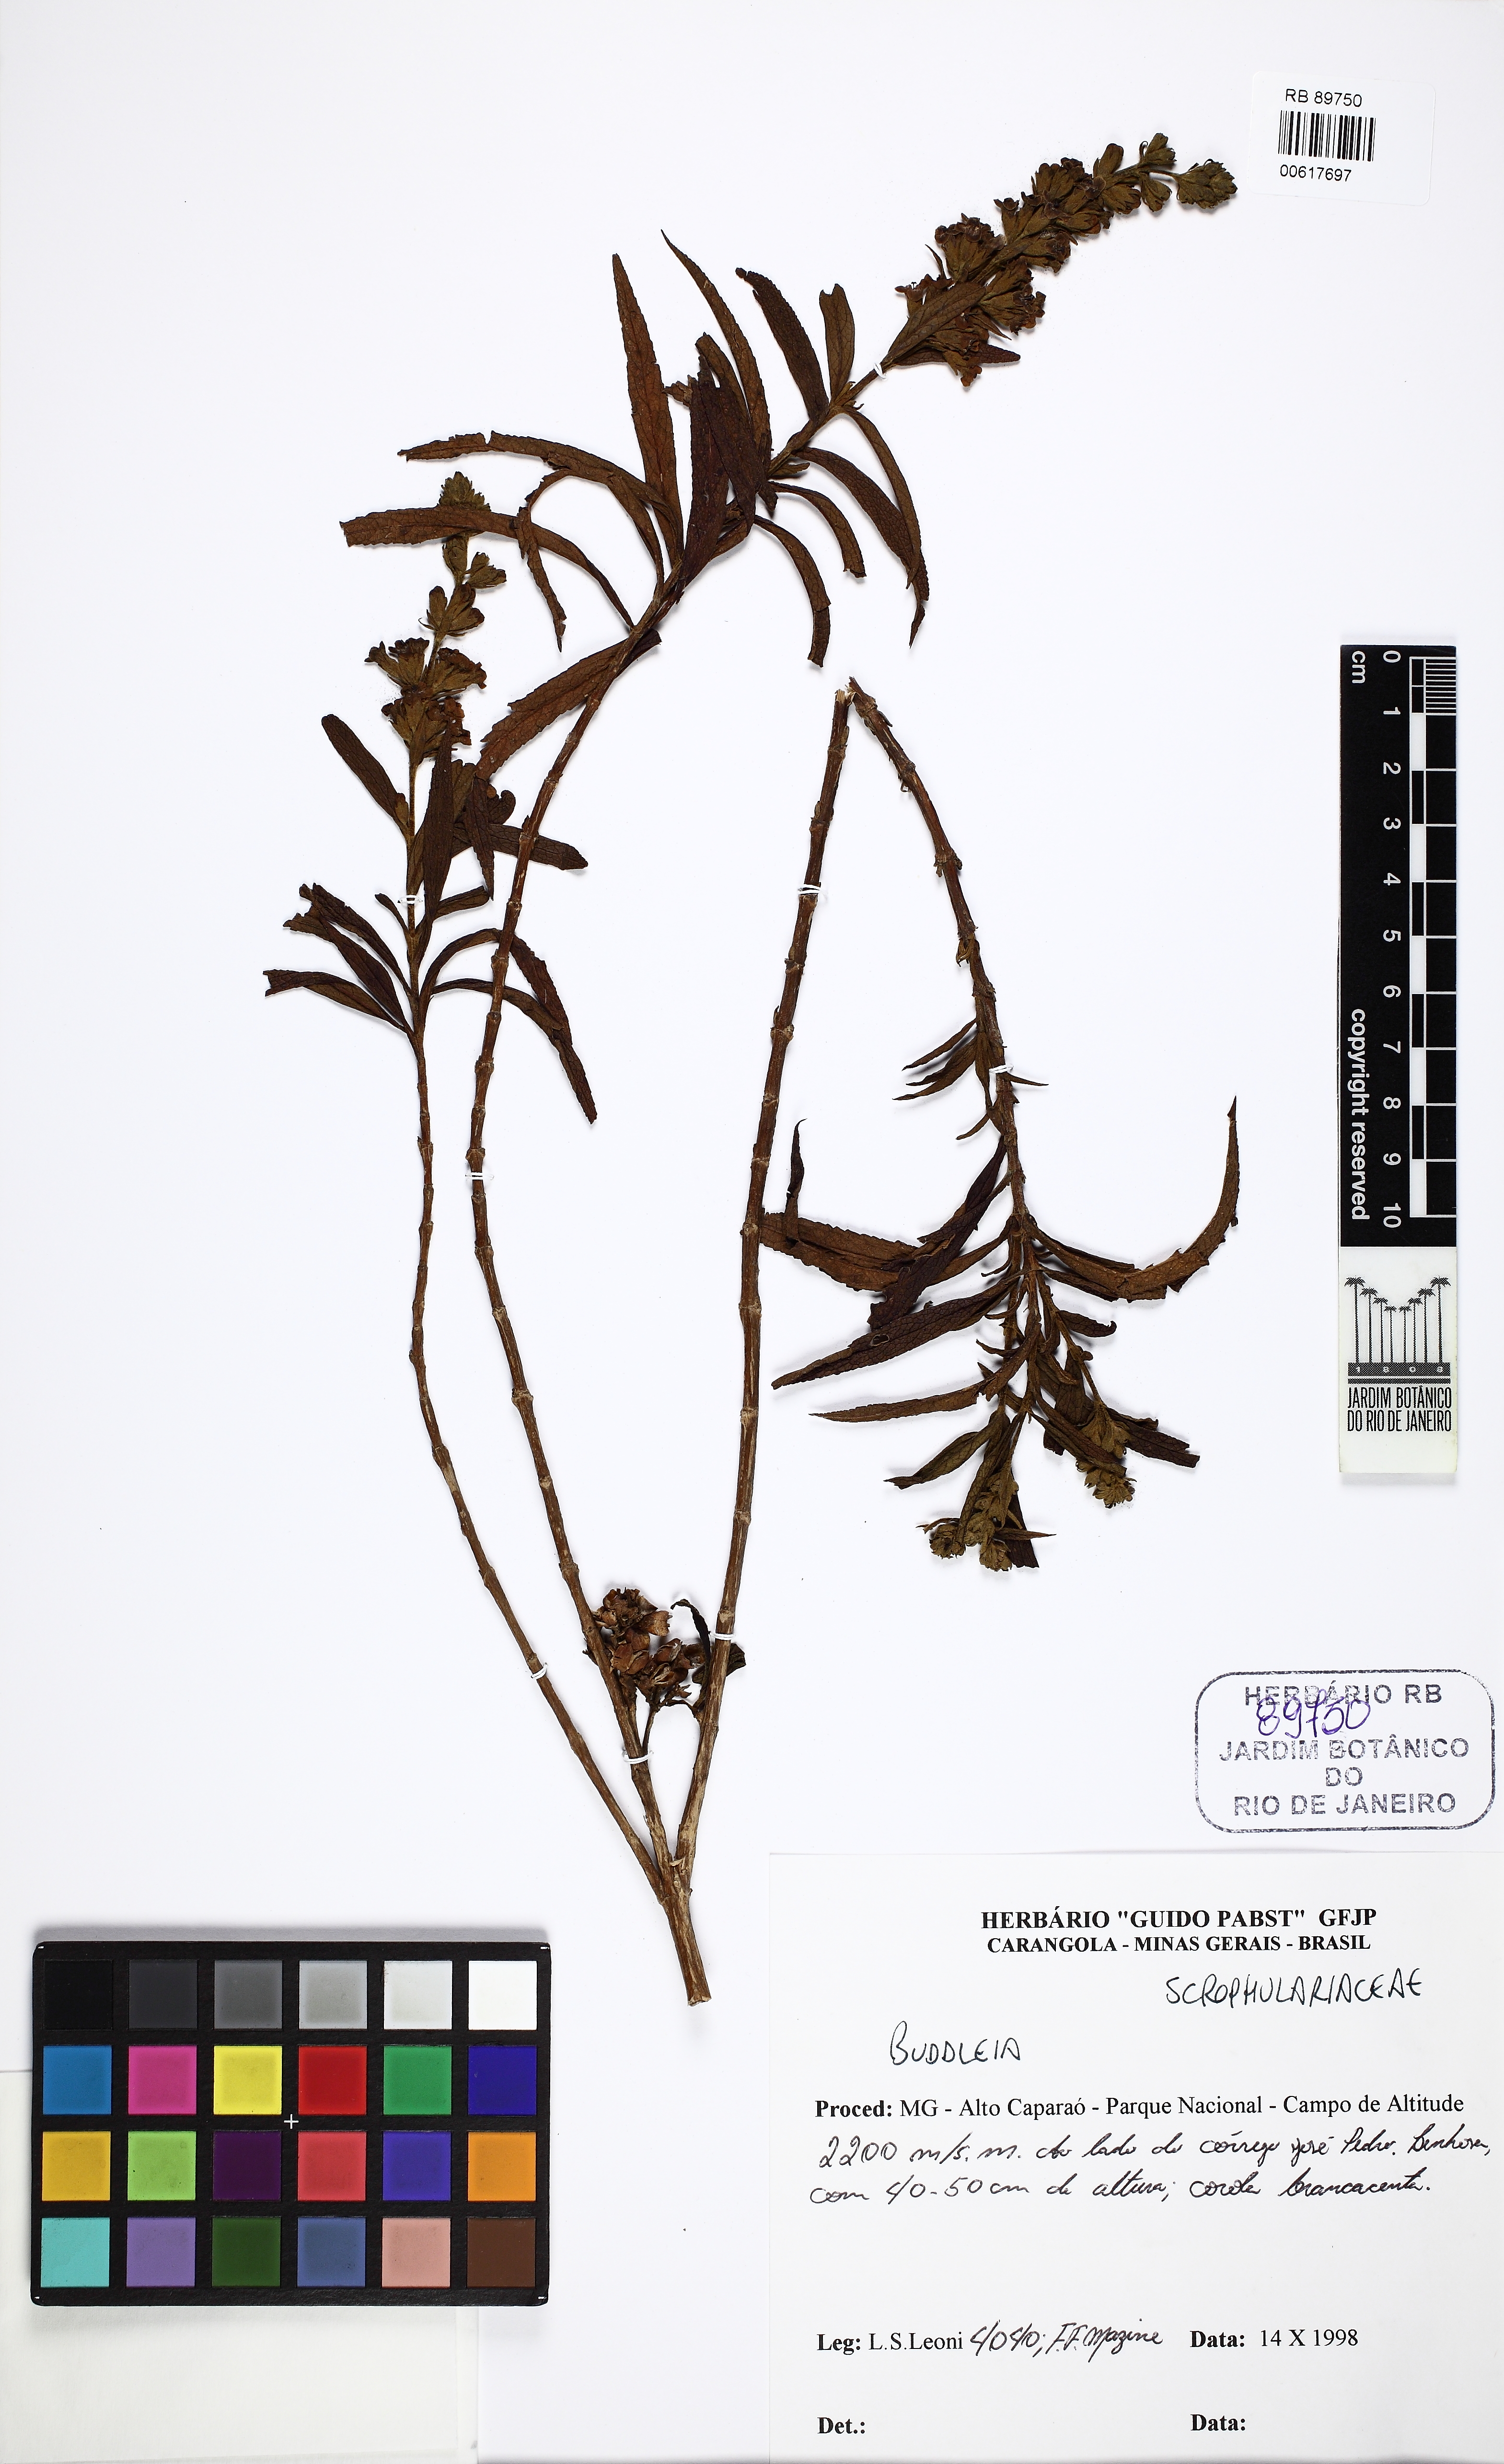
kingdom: Plantae
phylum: Tracheophyta
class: Magnoliopsida
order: Lamiales
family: Scrophulariaceae
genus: Buddleja
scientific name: Buddleja oblonga
